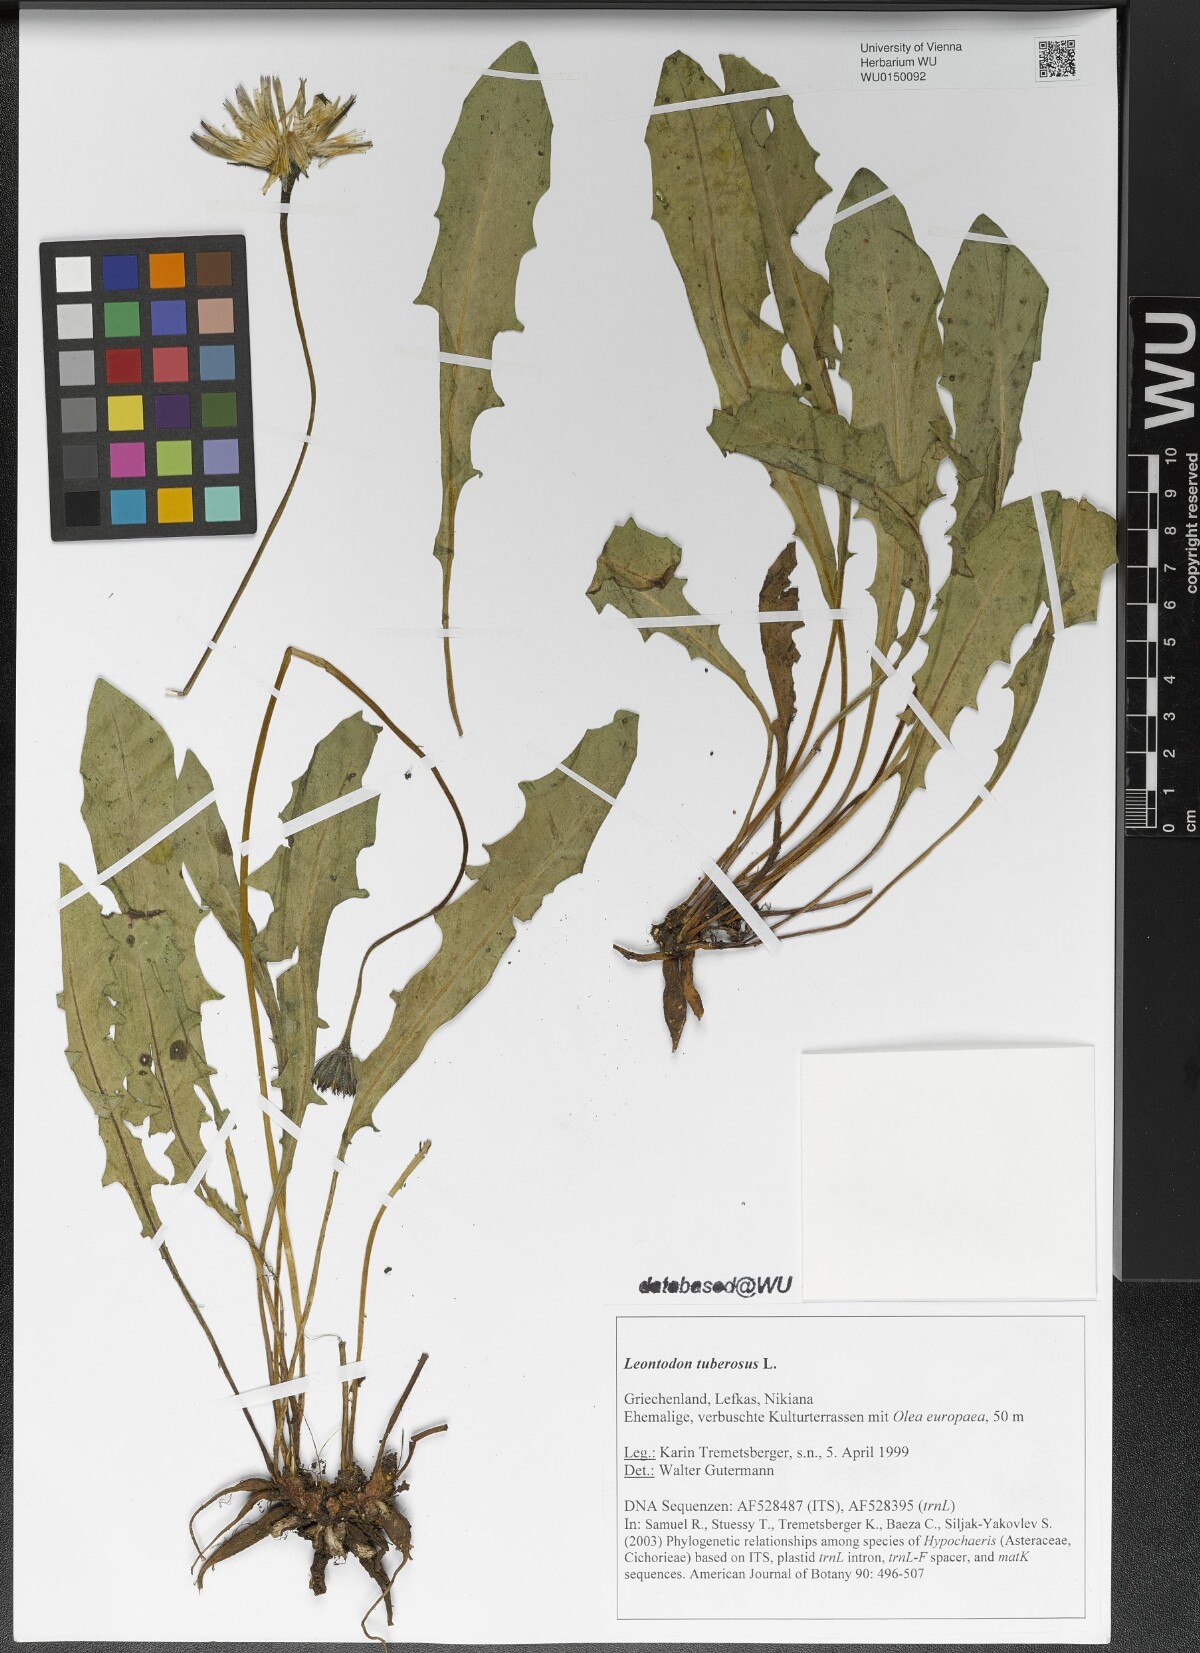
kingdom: Plantae
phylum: Tracheophyta
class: Magnoliopsida
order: Asterales
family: Asteraceae
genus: Thrincia
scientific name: Thrincia tuberosa
